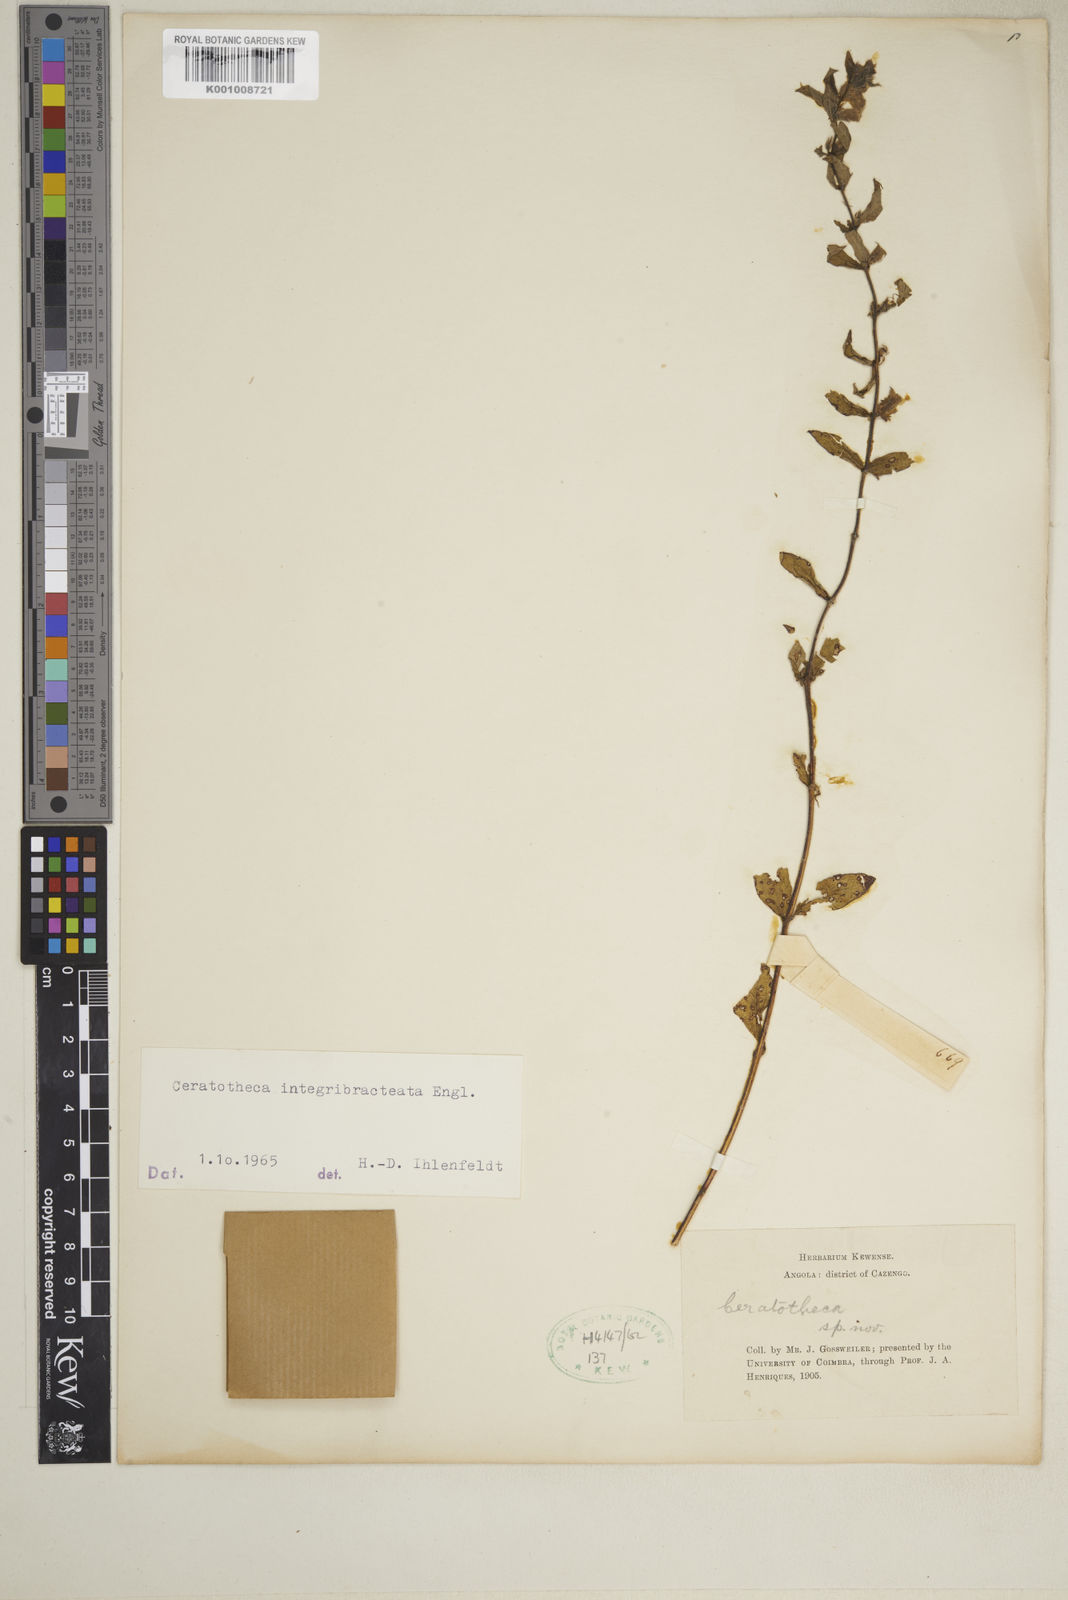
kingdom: Plantae
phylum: Tracheophyta
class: Magnoliopsida
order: Lamiales
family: Pedaliaceae
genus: Sesamum
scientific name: Sesamum integribracteatum
